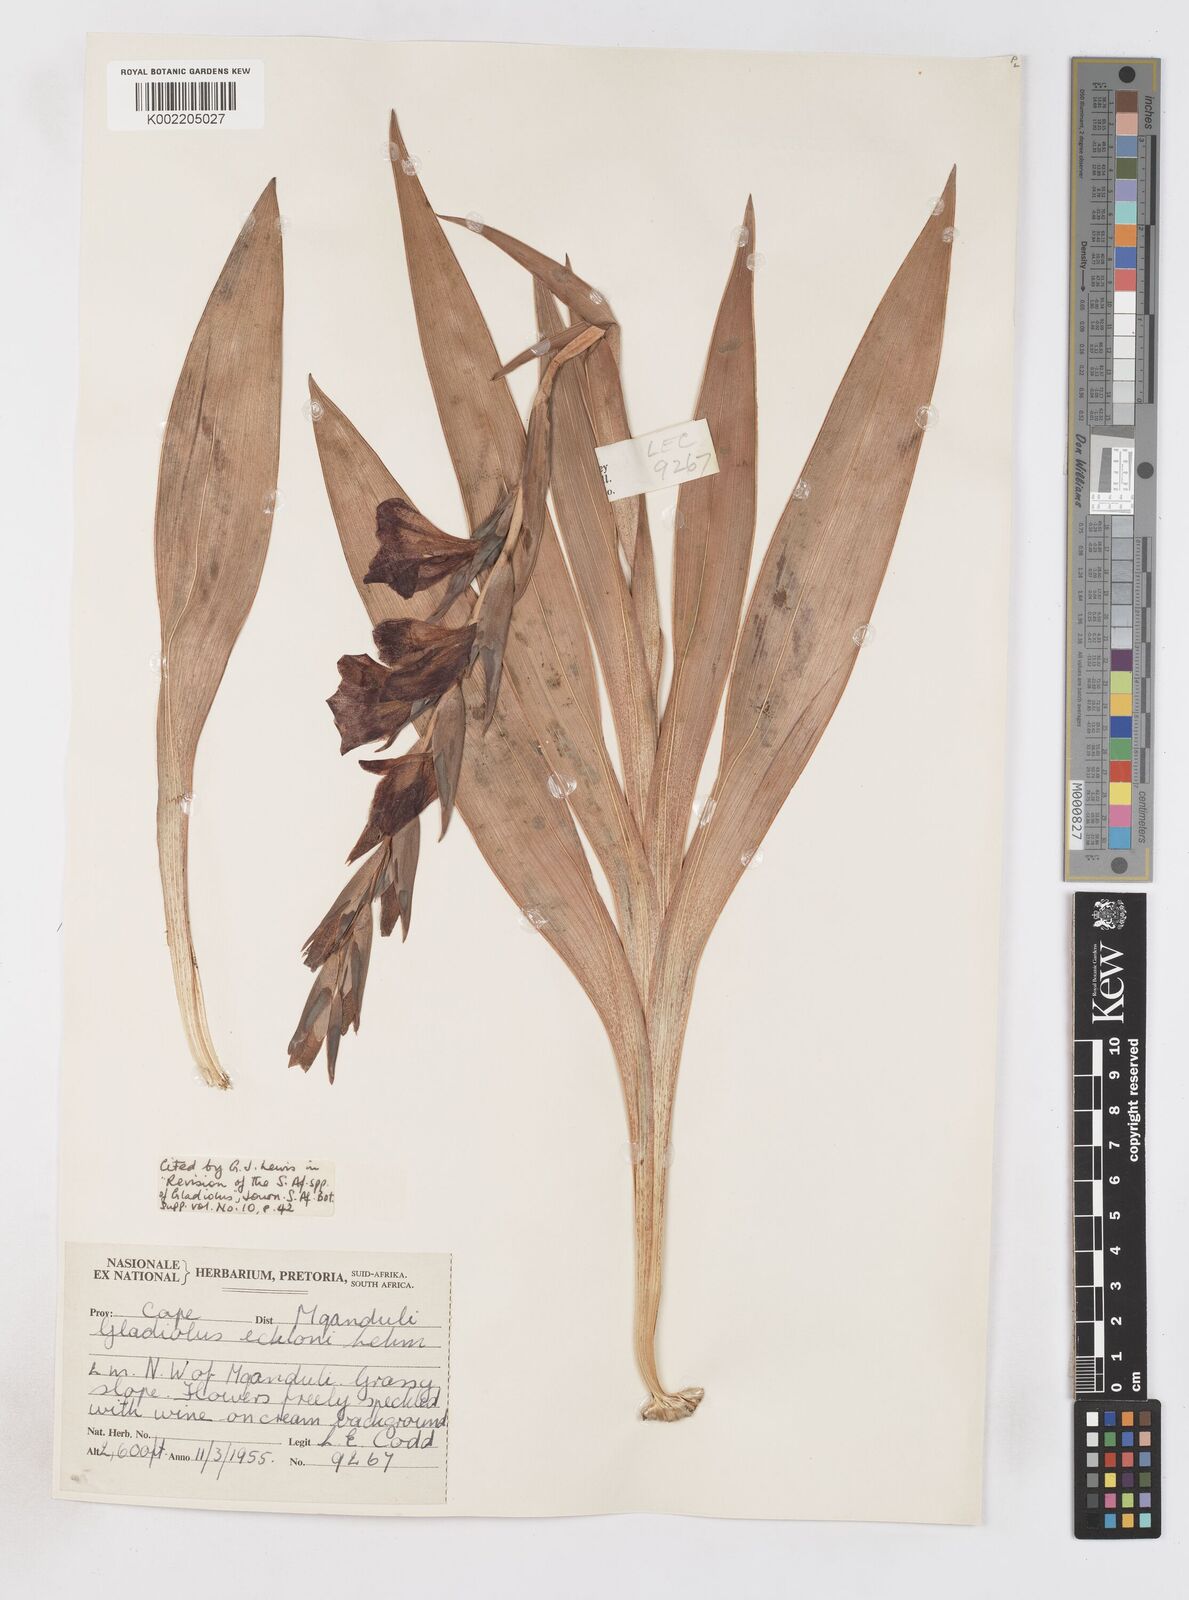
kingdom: Plantae
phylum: Tracheophyta
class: Liliopsida
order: Asparagales
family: Iridaceae
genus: Gladiolus
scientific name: Gladiolus ecklonii
